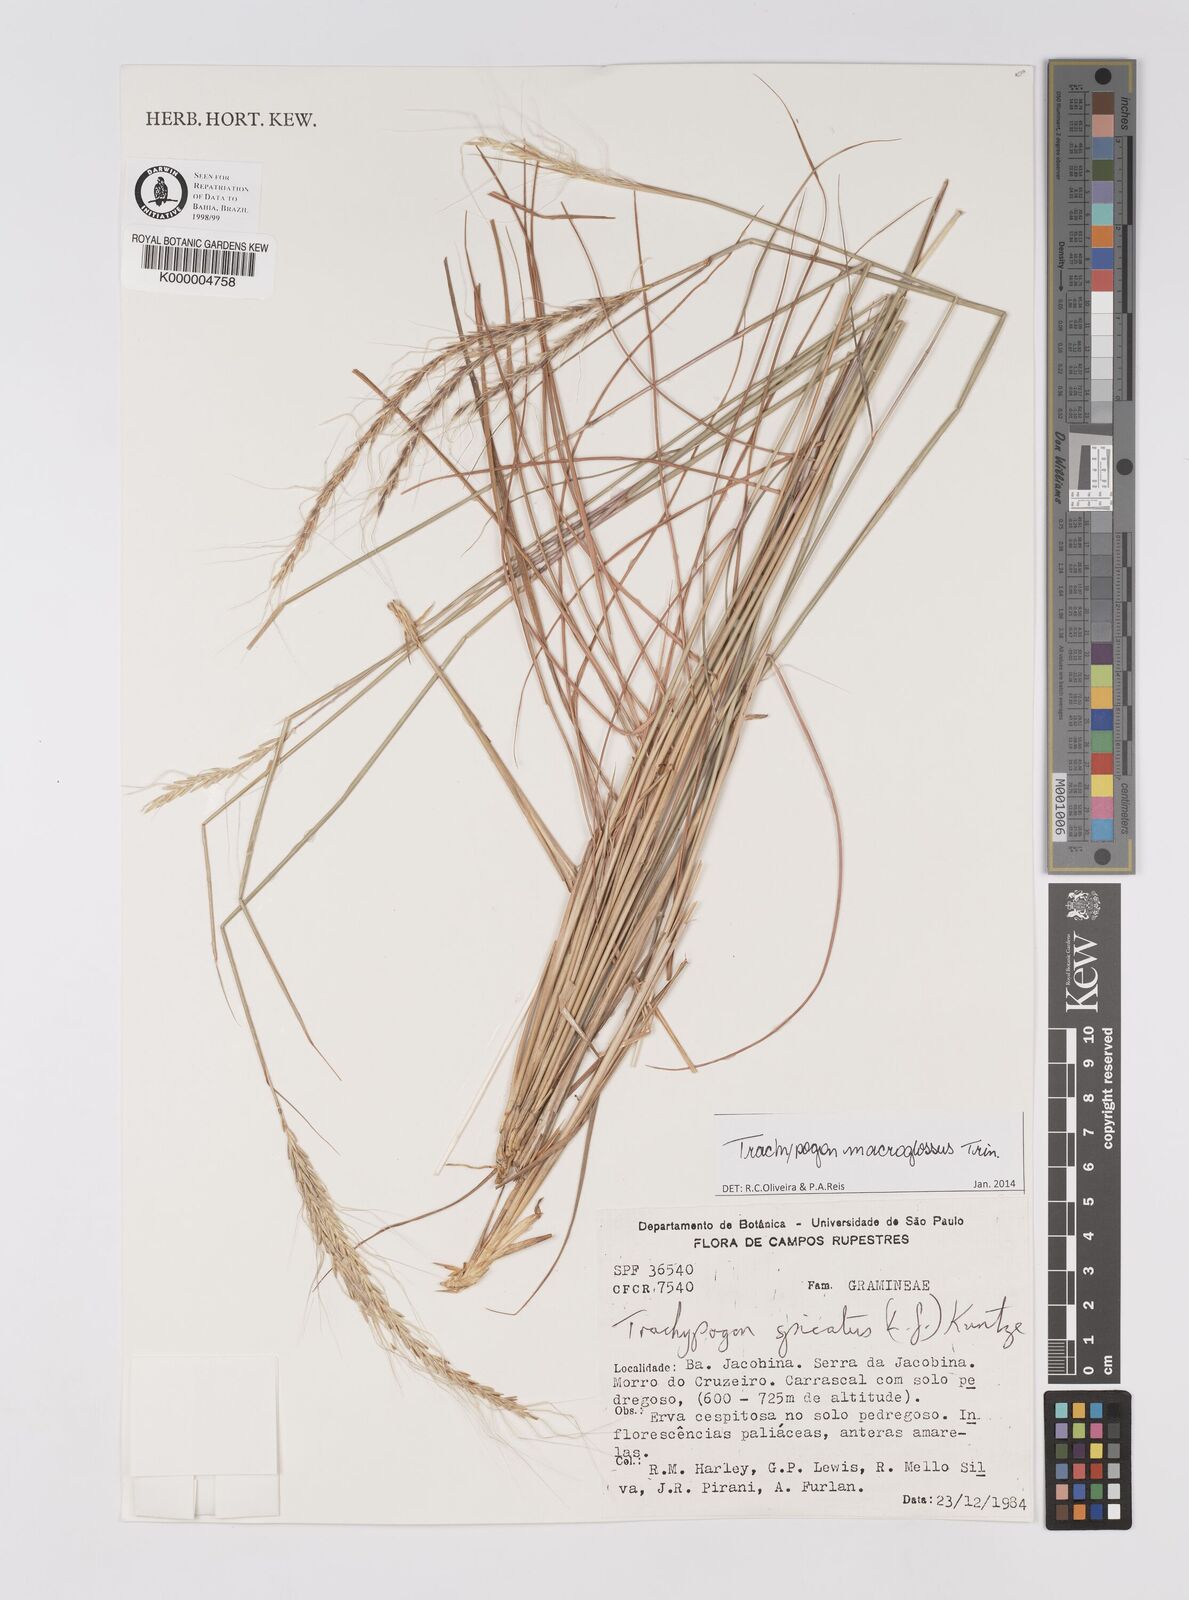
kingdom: Plantae
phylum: Tracheophyta
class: Liliopsida
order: Poales
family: Poaceae
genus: Trachypogon
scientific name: Trachypogon spicatus
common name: Crinkle-awn
